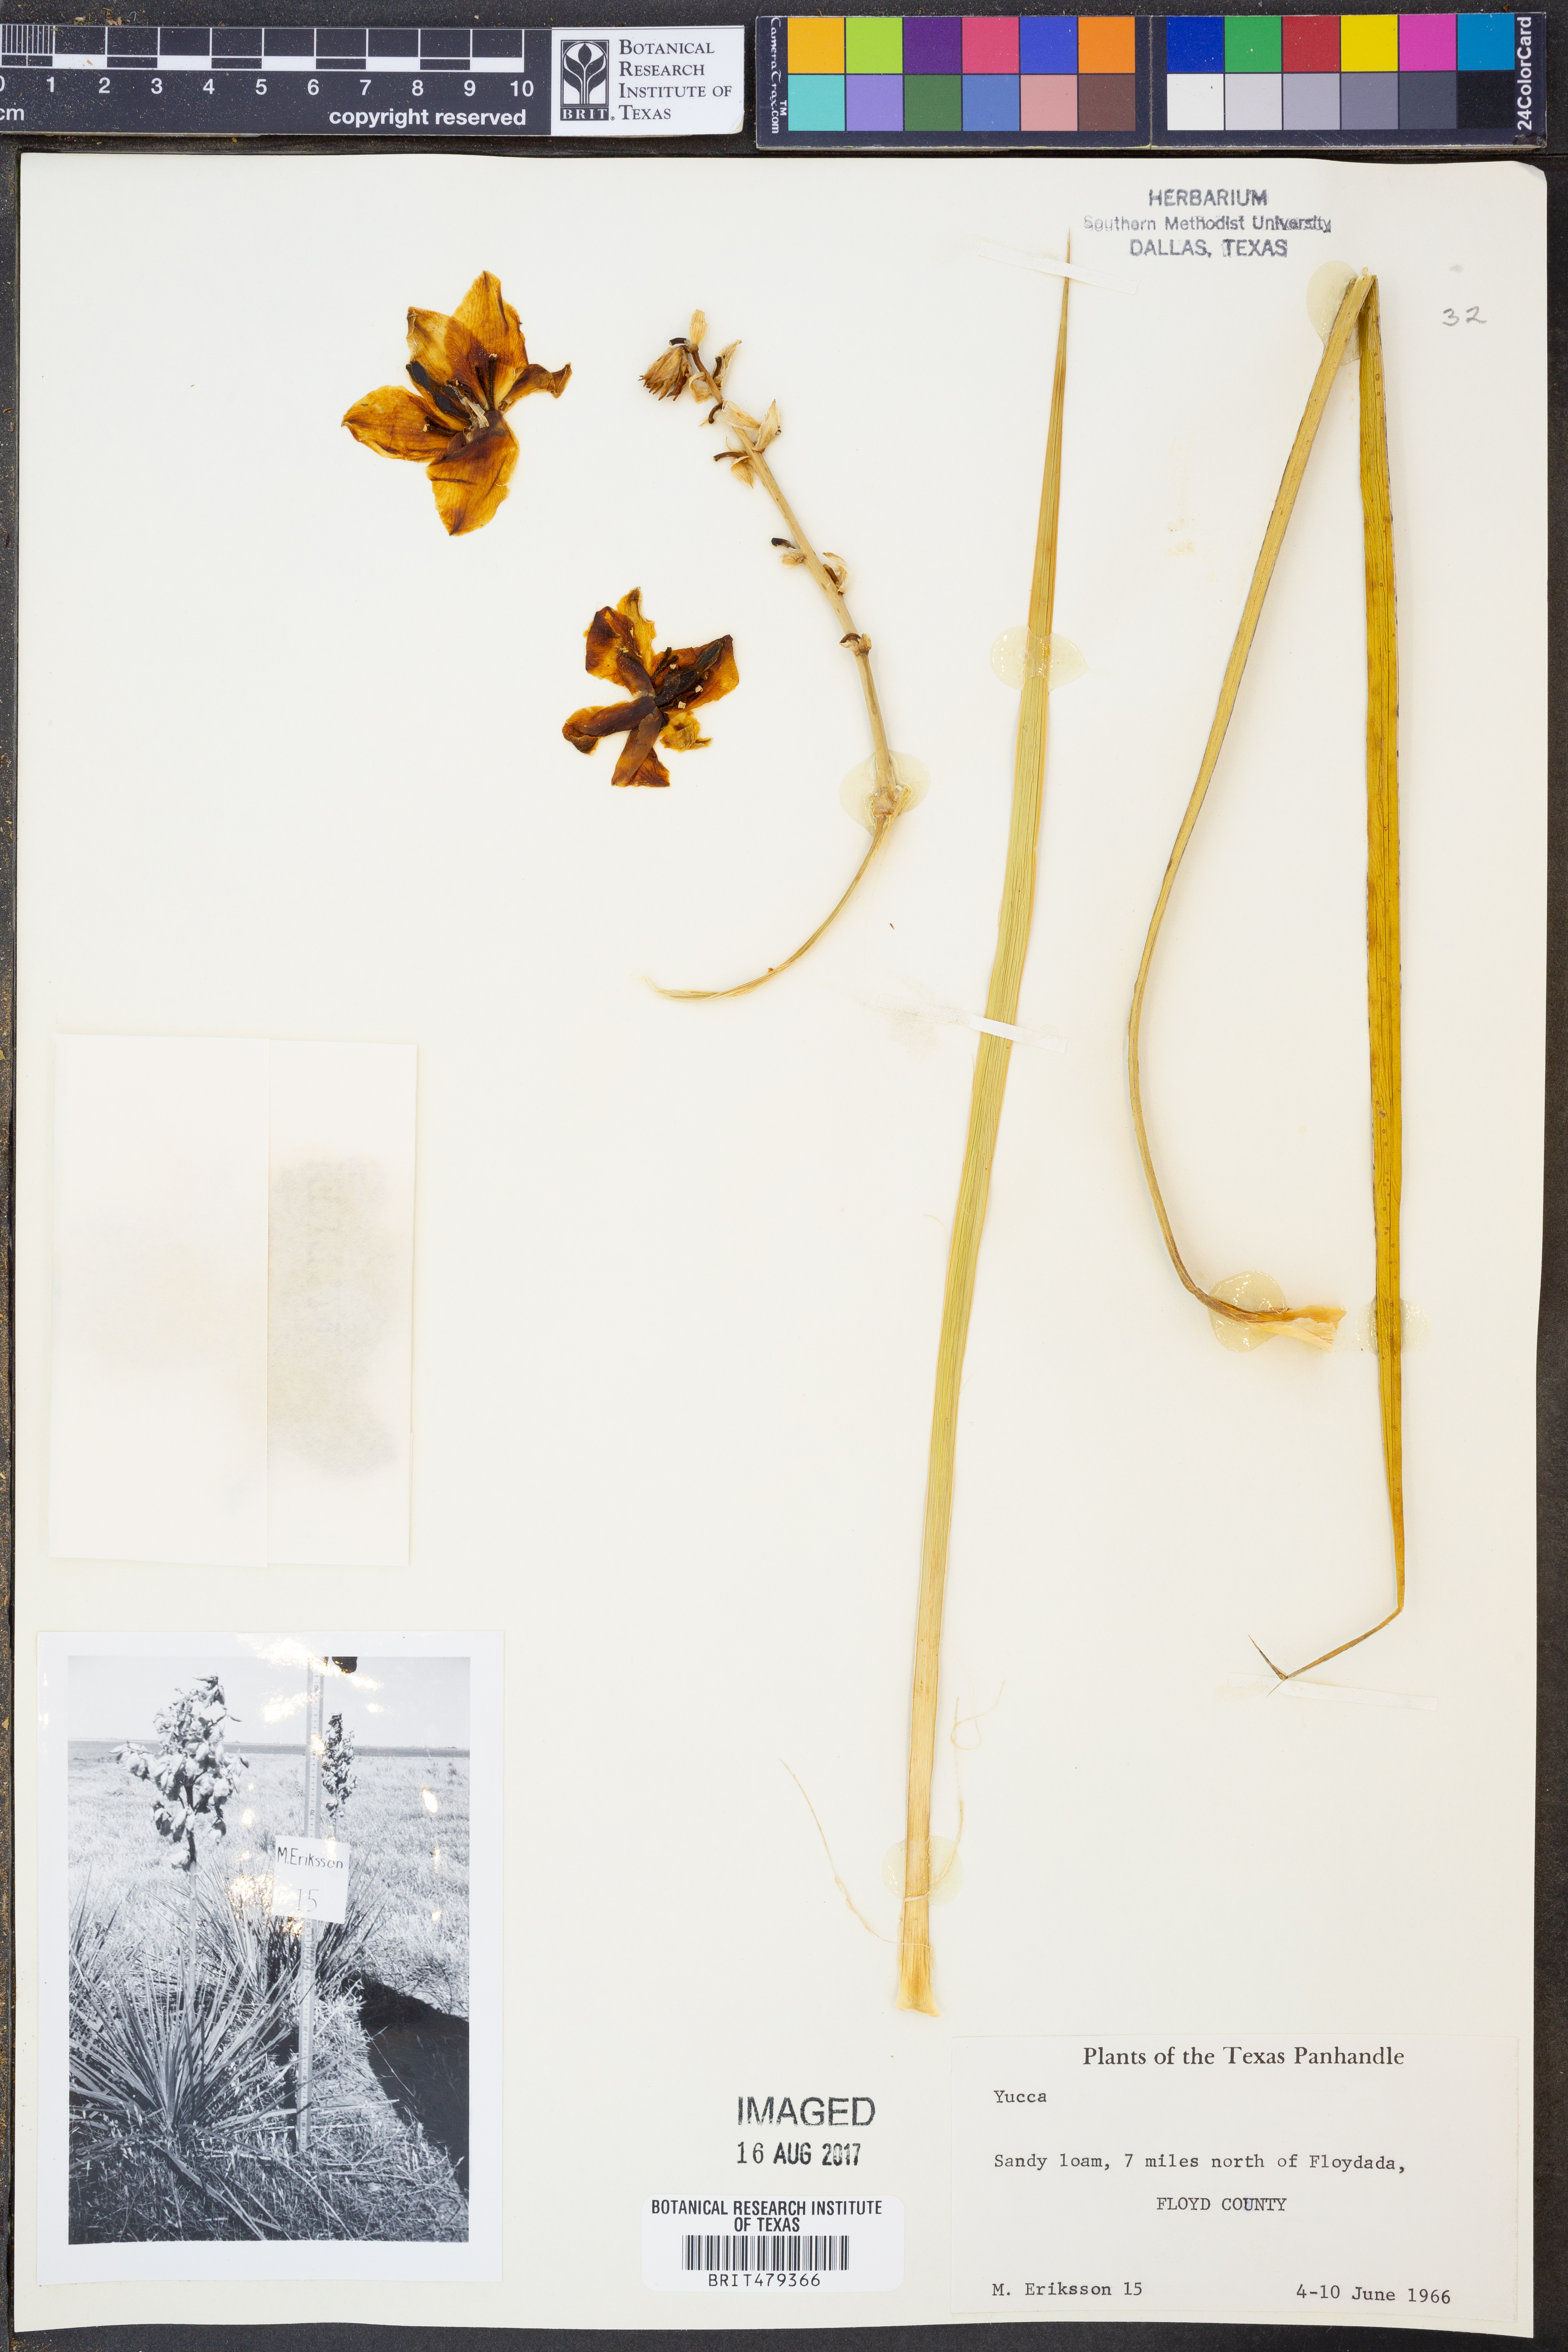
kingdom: Plantae
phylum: Tracheophyta
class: Liliopsida
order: Asparagales
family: Asparagaceae
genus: Yucca
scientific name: Yucca glauca
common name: Great plains yucca
